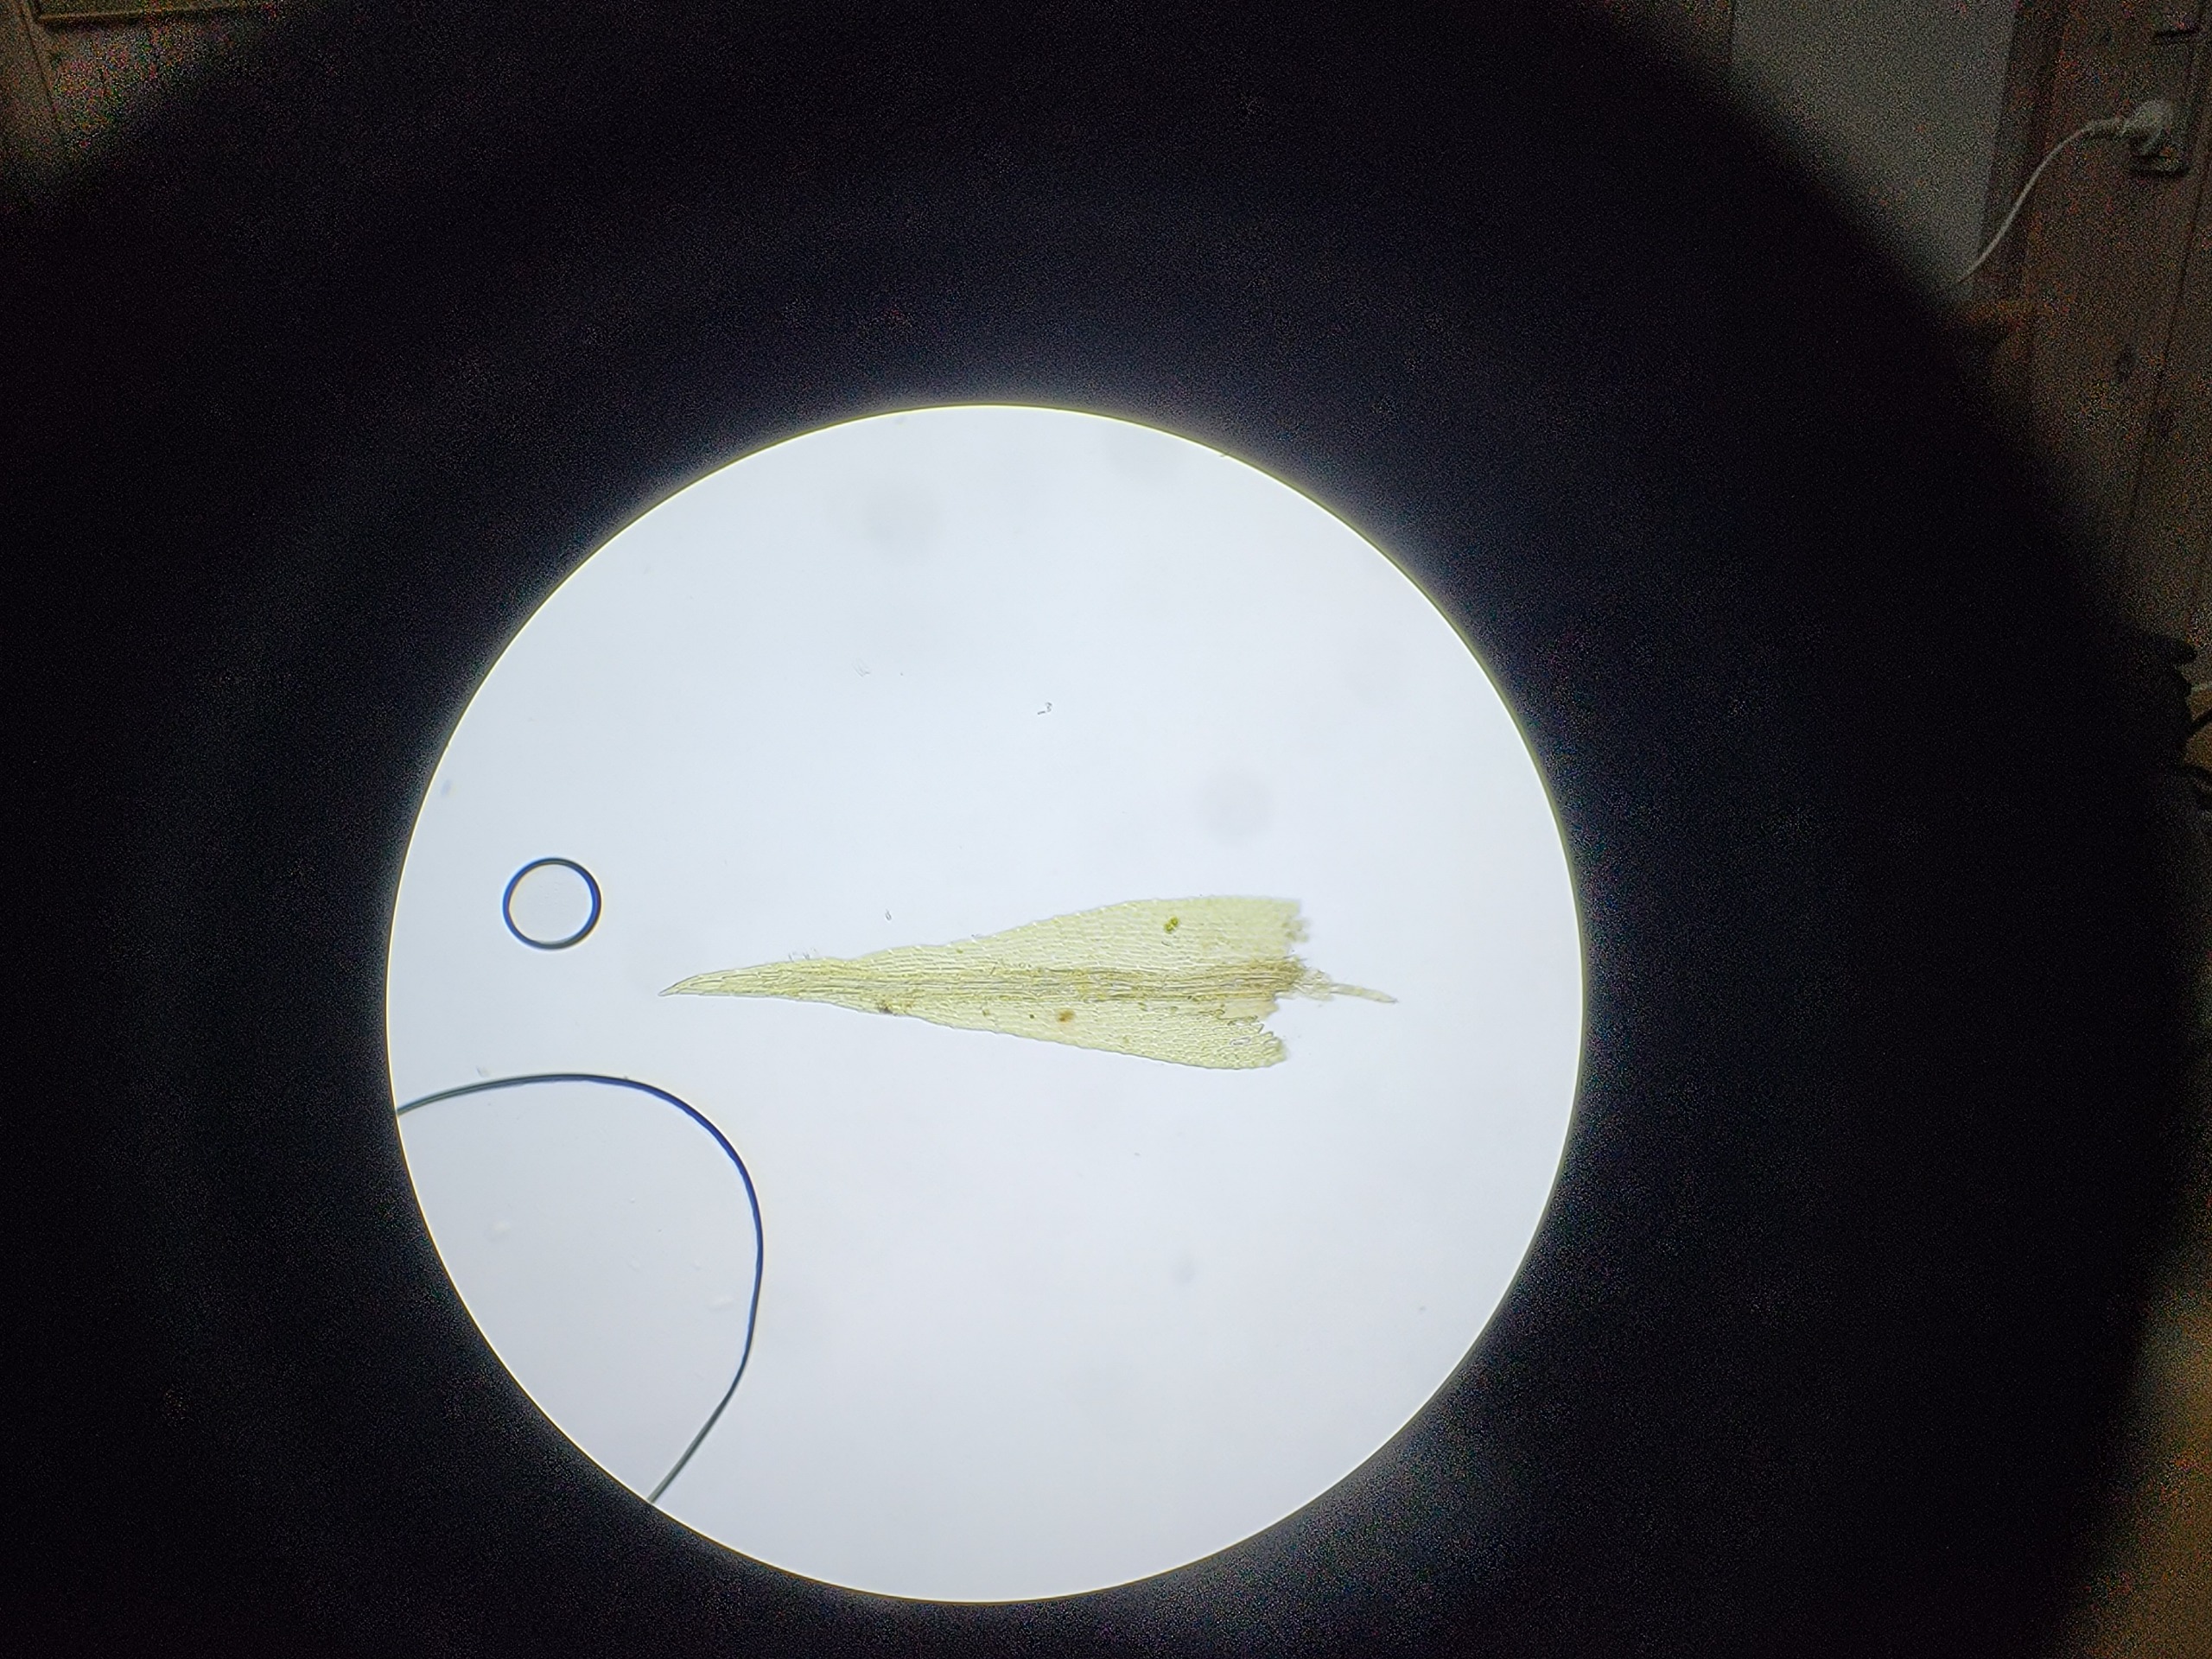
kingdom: Plantae
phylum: Bryophyta
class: Bryopsida
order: Archidiales
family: Archidiaceae
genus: Archidium
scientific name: Archidium alternifolium
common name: Stor sporemos
